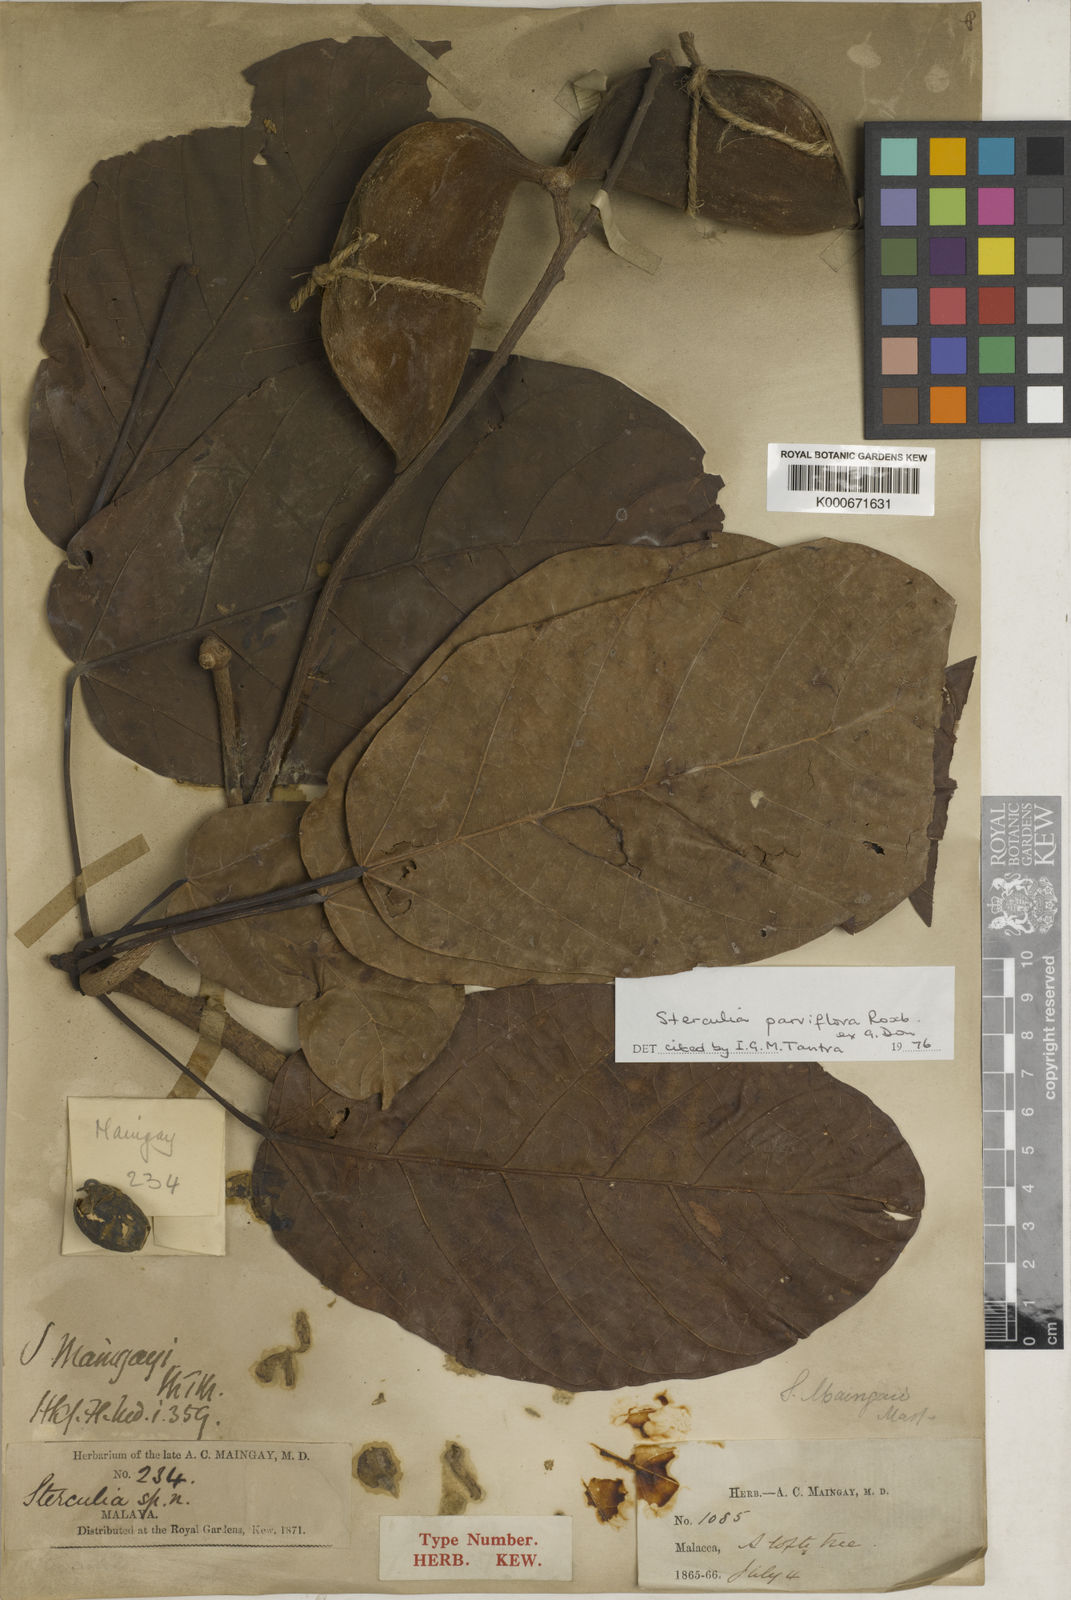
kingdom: Plantae
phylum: Tracheophyta
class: Magnoliopsida
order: Malvales
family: Malvaceae
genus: Sterculia
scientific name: Sterculia
